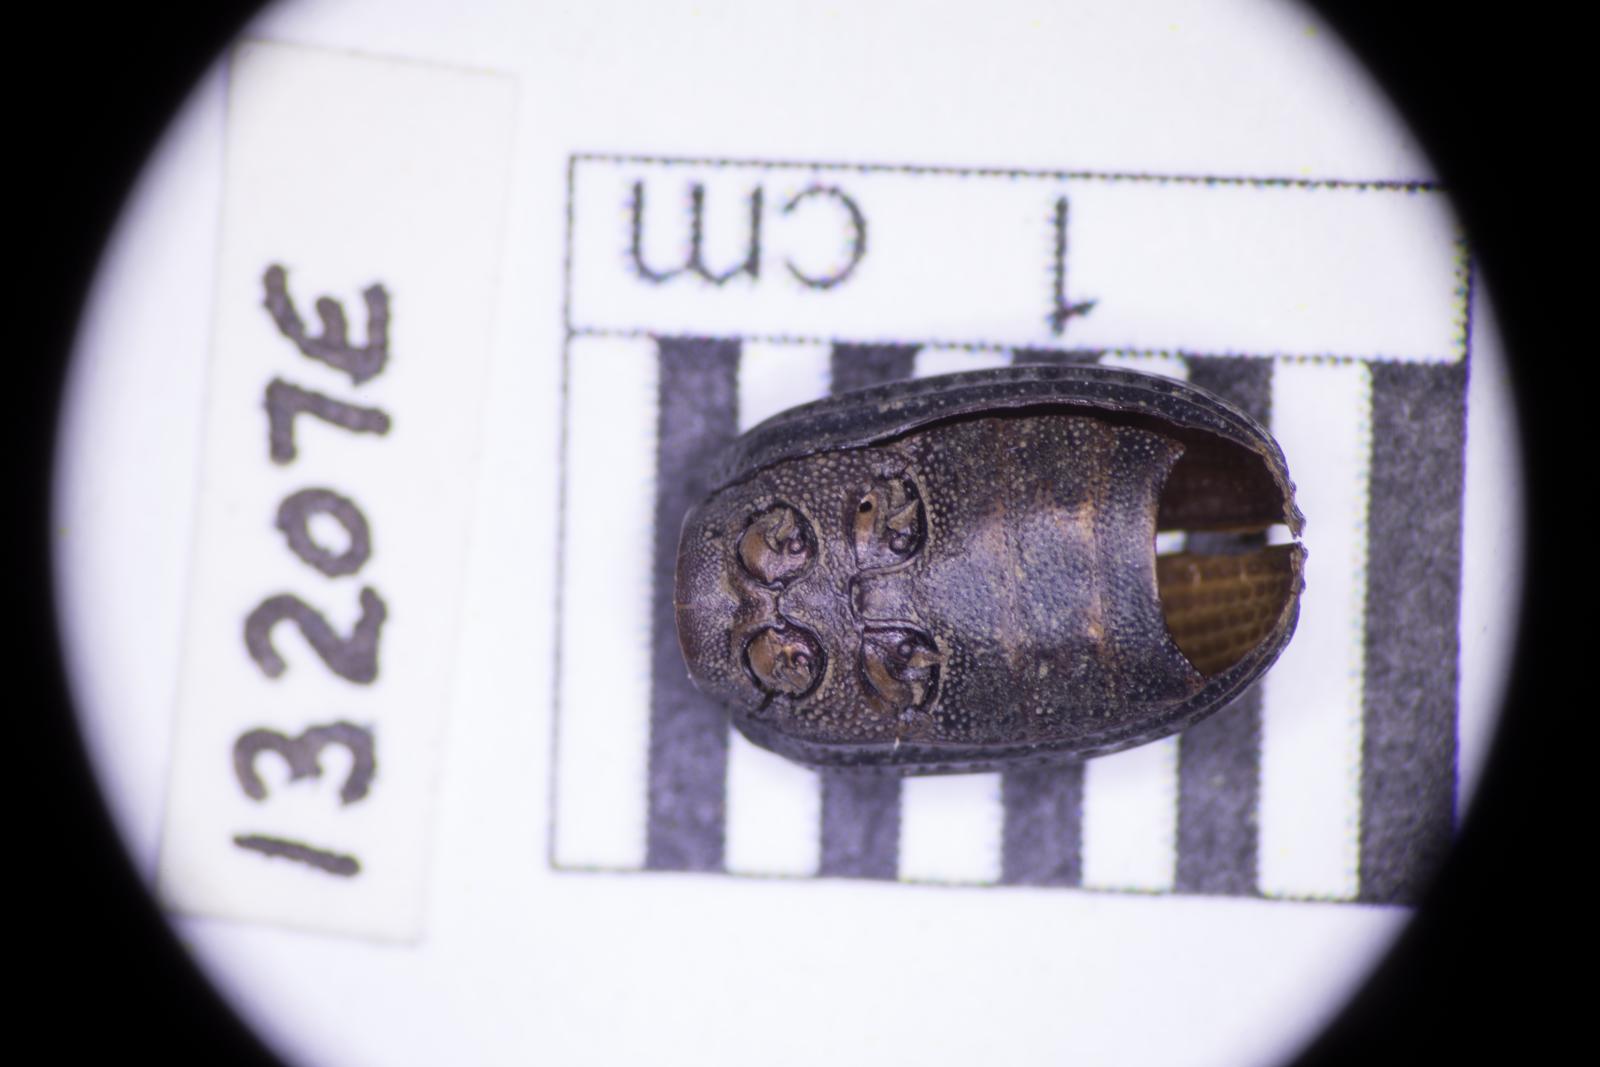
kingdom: Animalia
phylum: Arthropoda
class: Insecta
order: Coleoptera
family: Tenebrionidae
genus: Apsena
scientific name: Apsena laticornis
